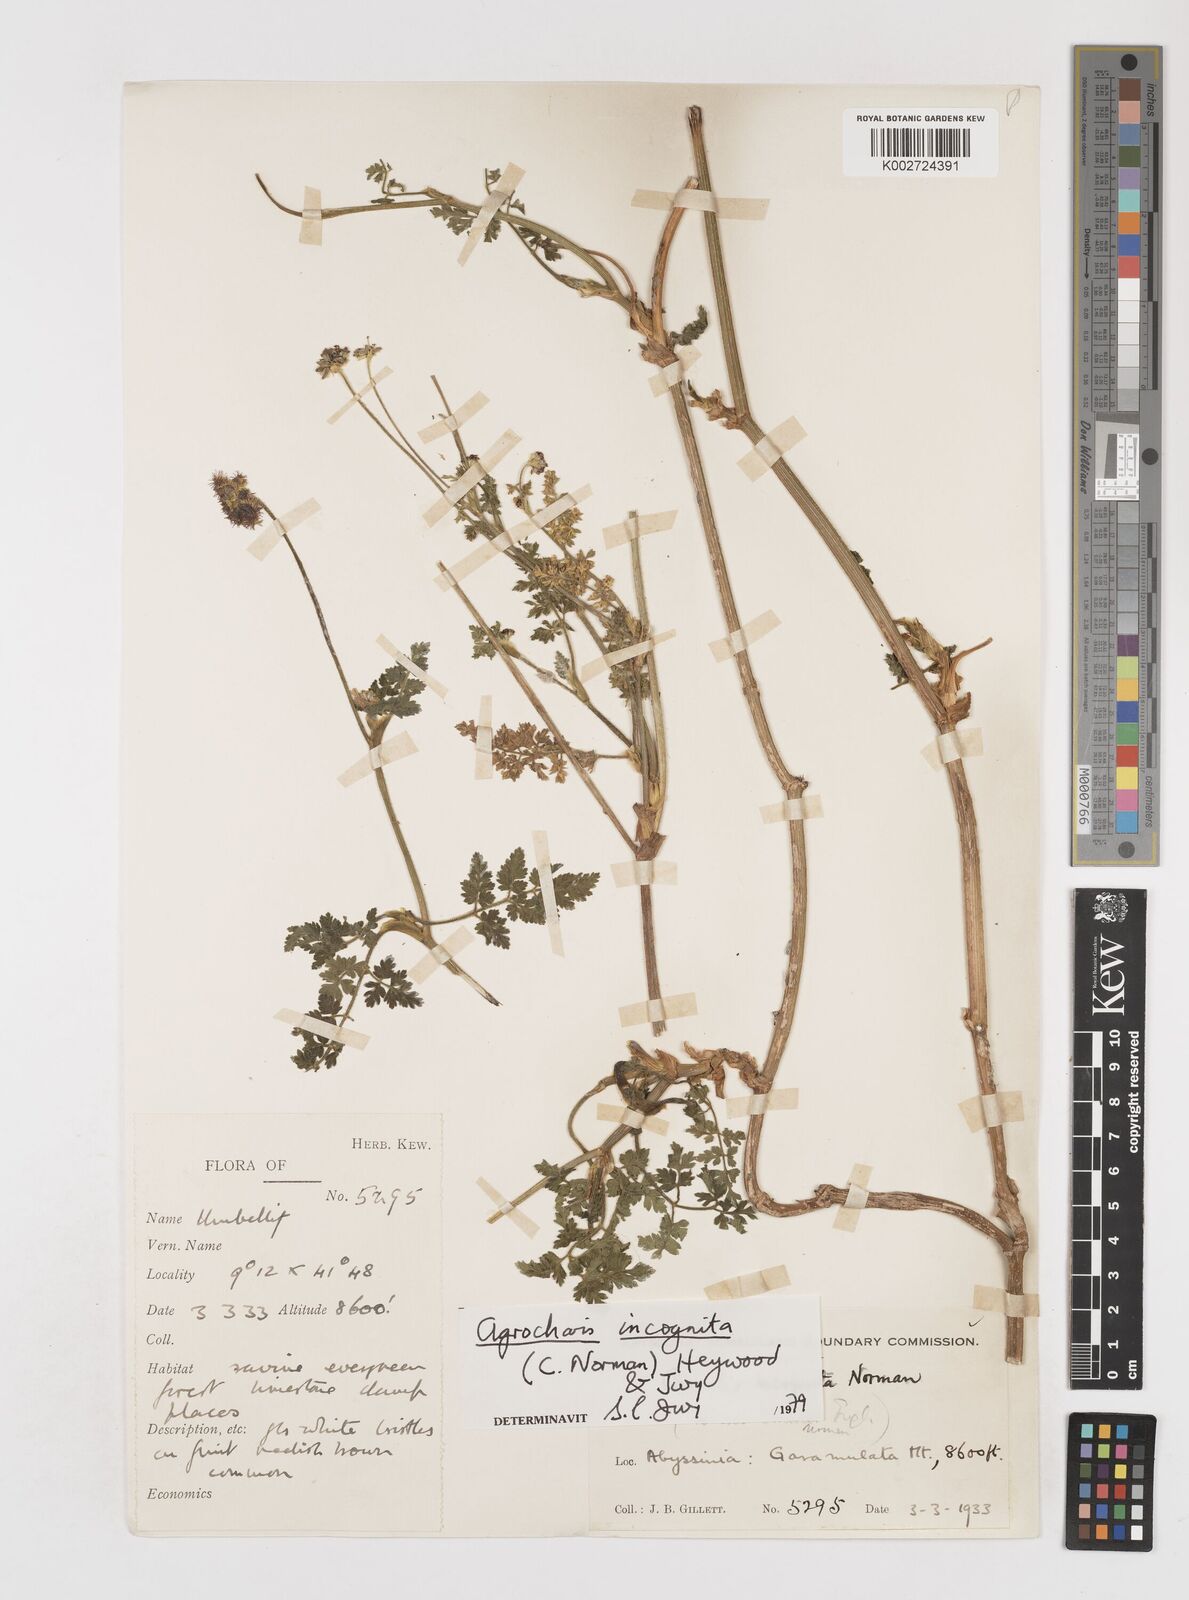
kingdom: Plantae
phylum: Tracheophyta
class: Magnoliopsida
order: Apiales
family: Apiaceae
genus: Daucus
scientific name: Daucus incognitus
